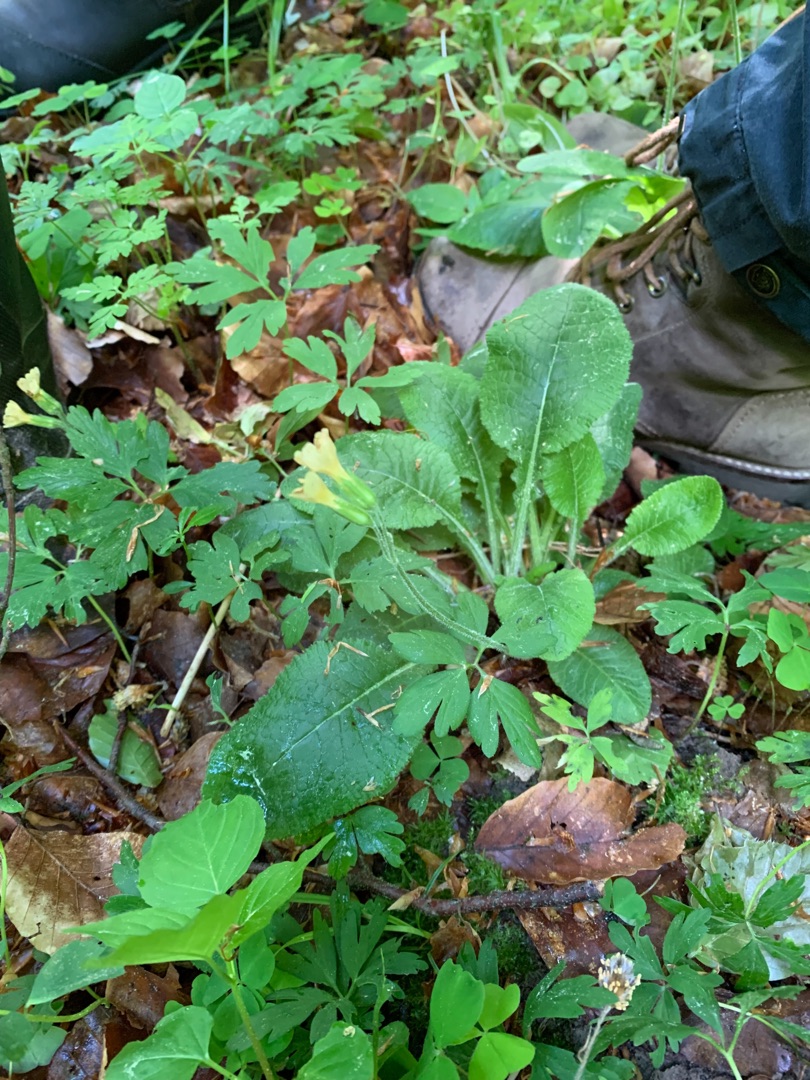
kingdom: Plantae
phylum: Tracheophyta
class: Magnoliopsida
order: Ericales
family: Primulaceae
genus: Primula
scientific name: Primula elatior
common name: Fladkravet kodriver
